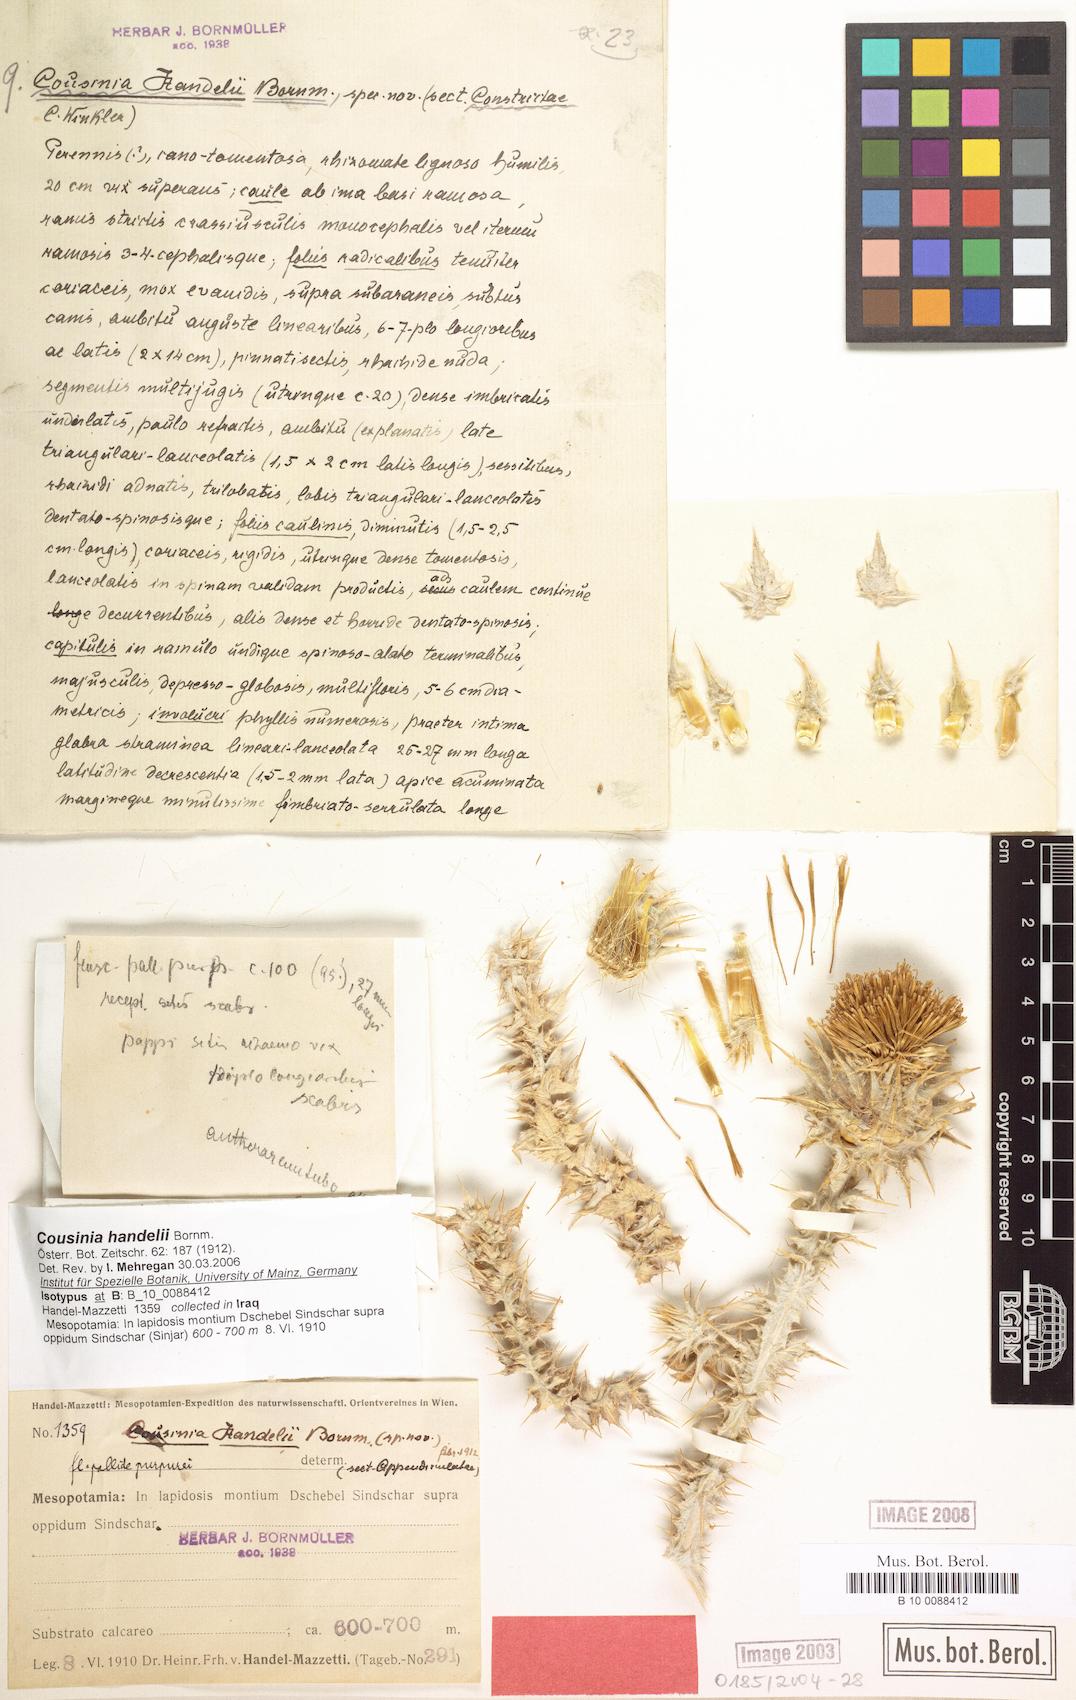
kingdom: Plantae
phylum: Tracheophyta
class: Magnoliopsida
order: Asterales
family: Asteraceae
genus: Cousinia
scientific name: Cousinia aintabensis
